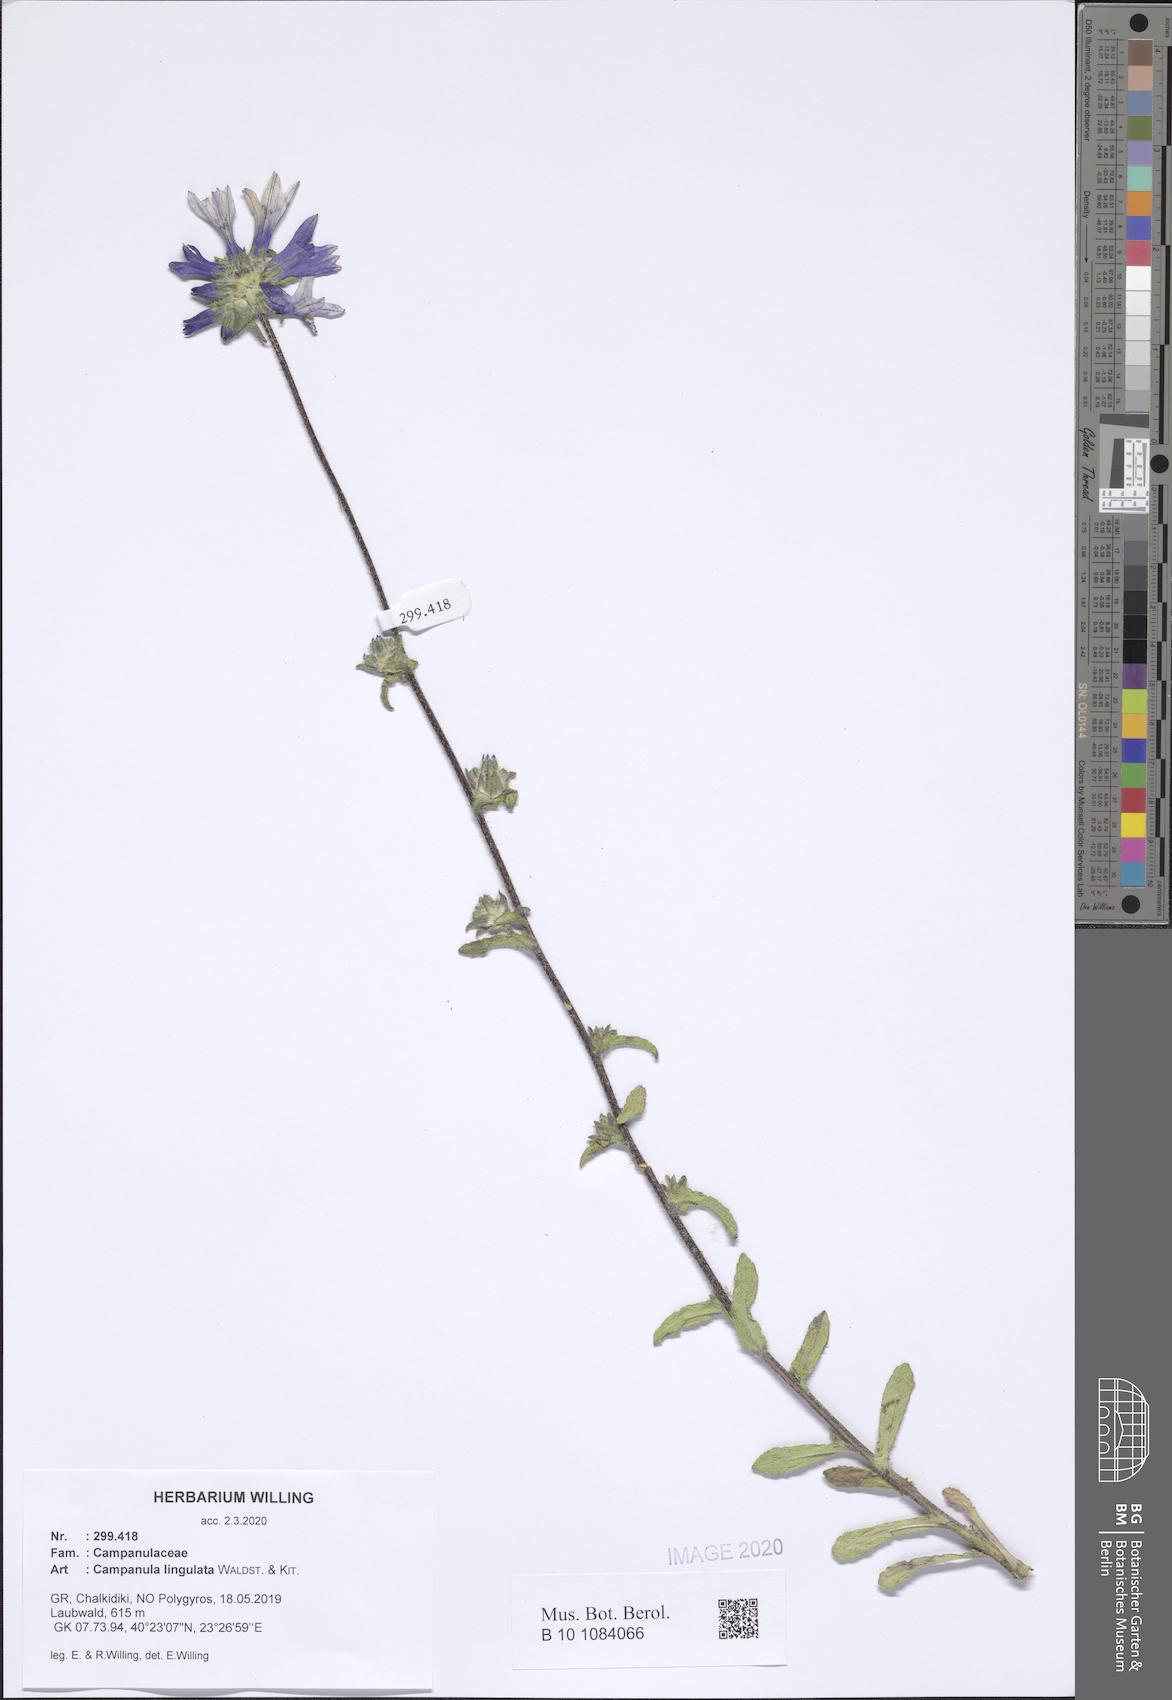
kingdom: Plantae
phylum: Tracheophyta
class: Magnoliopsida
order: Asterales
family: Campanulaceae
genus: Campanula
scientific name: Campanula lingulata
